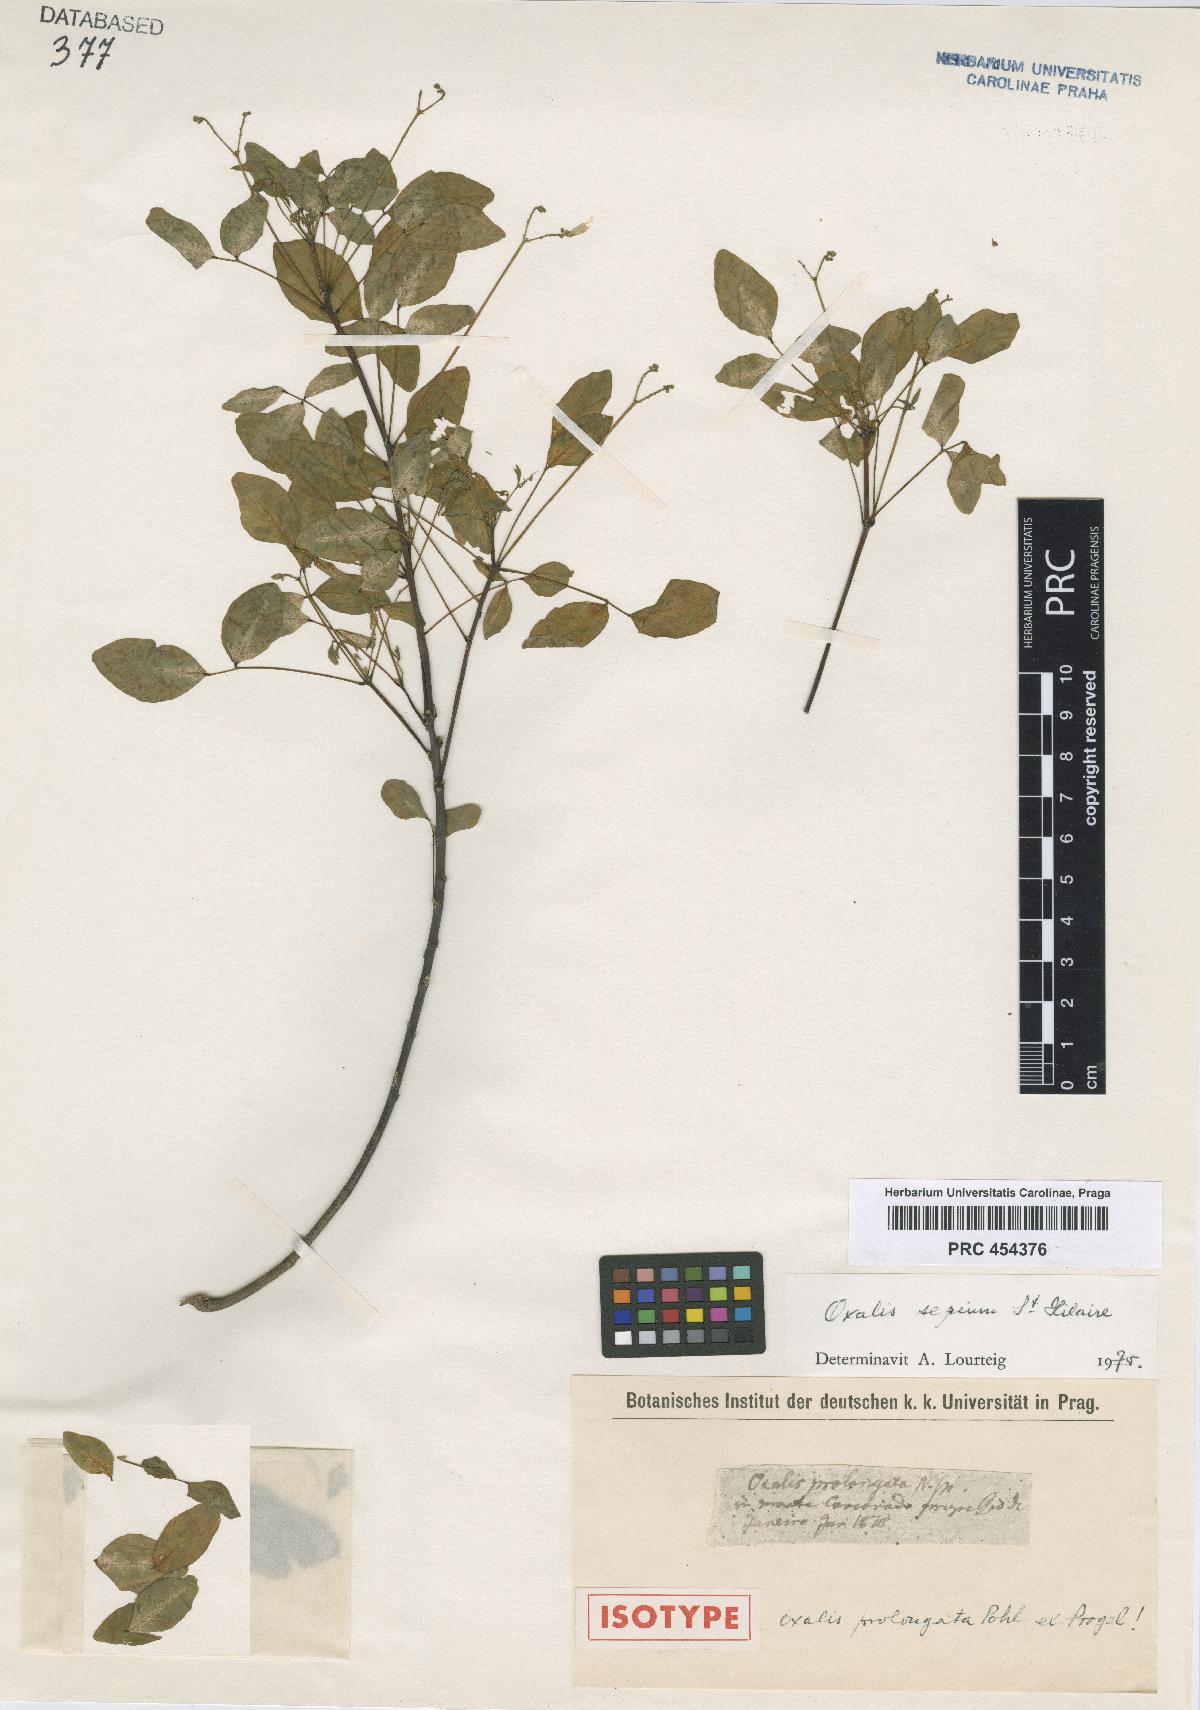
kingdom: Plantae
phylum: Tracheophyta
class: Magnoliopsida
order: Oxalidales
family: Oxalidaceae
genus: Oxalis
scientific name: Oxalis sepium
